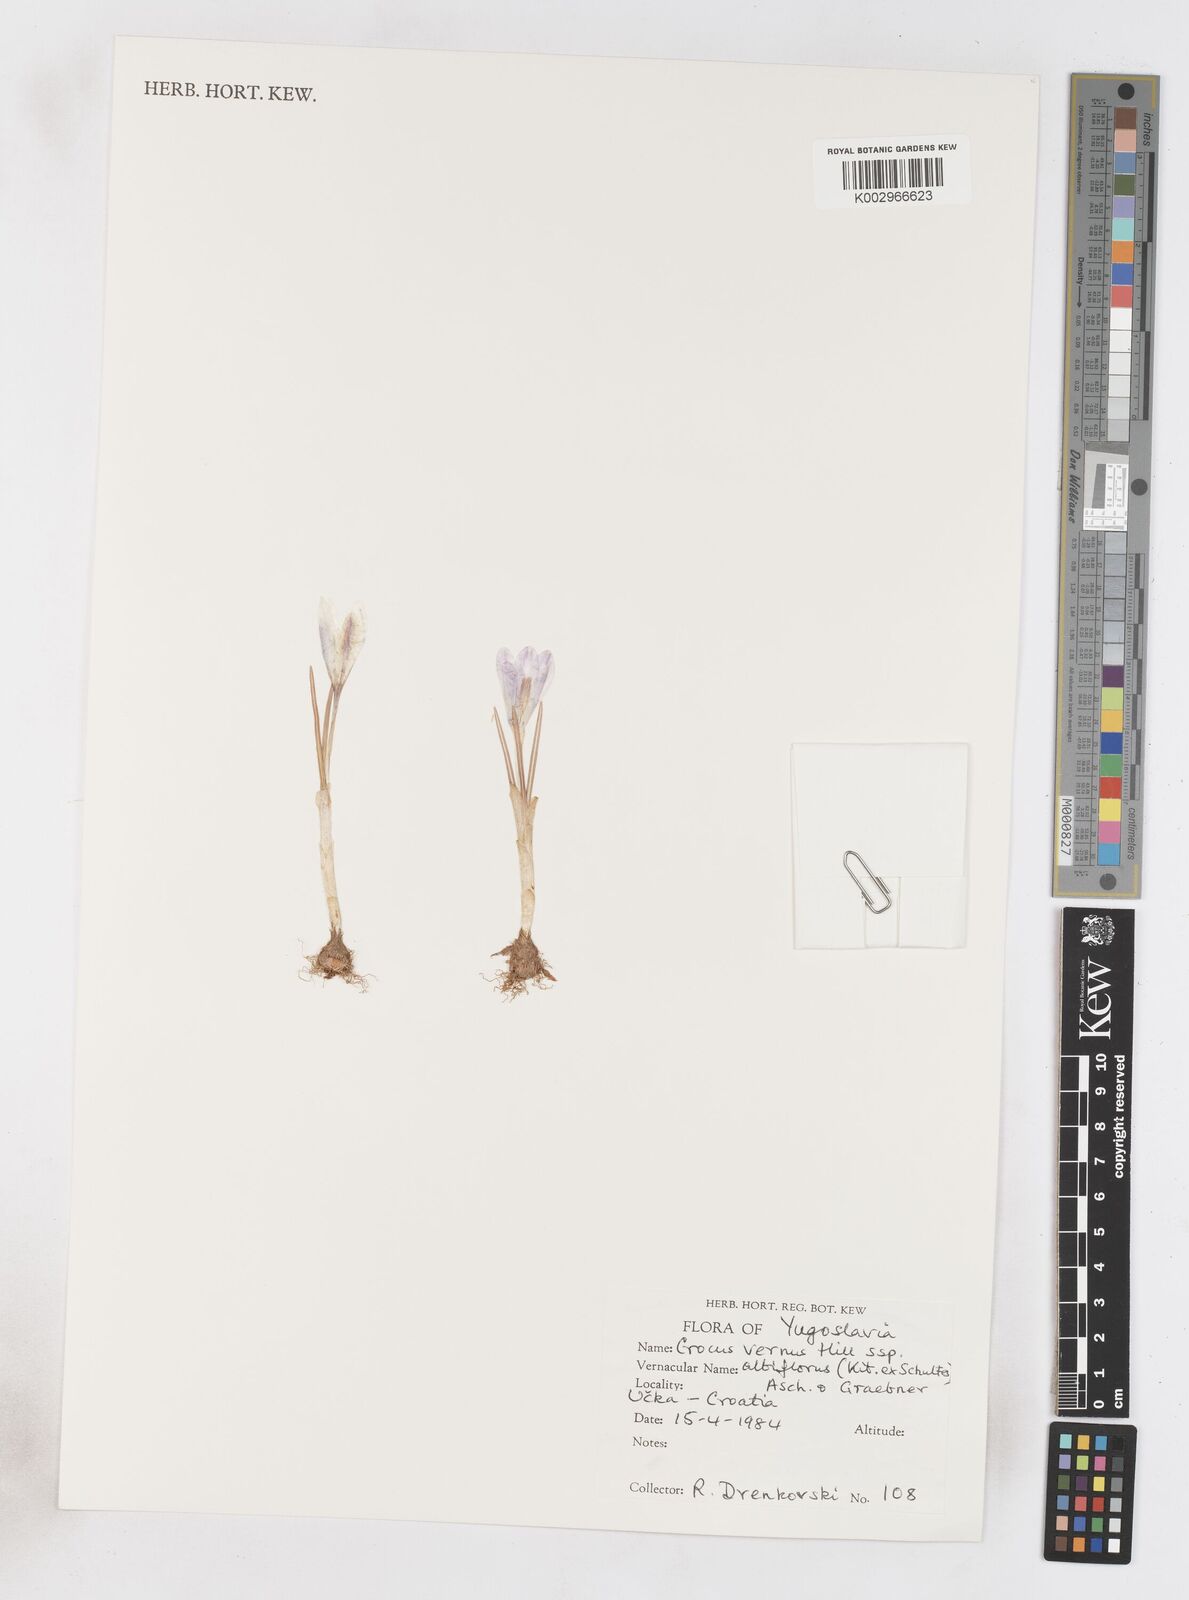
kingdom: Plantae
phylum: Tracheophyta
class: Liliopsida
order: Asparagales
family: Iridaceae
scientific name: Iridaceae
